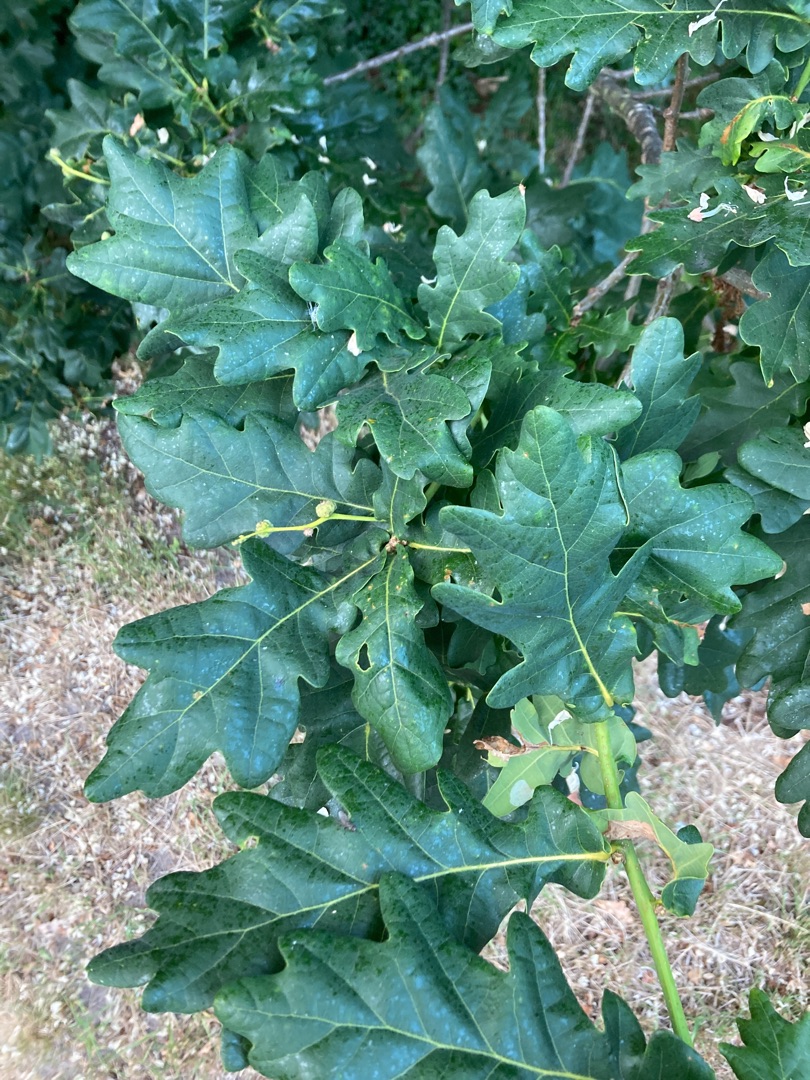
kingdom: Plantae
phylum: Tracheophyta
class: Magnoliopsida
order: Fagales
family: Fagaceae
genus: Quercus
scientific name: Quercus robur
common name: Stilk-eg/almindelig eg
